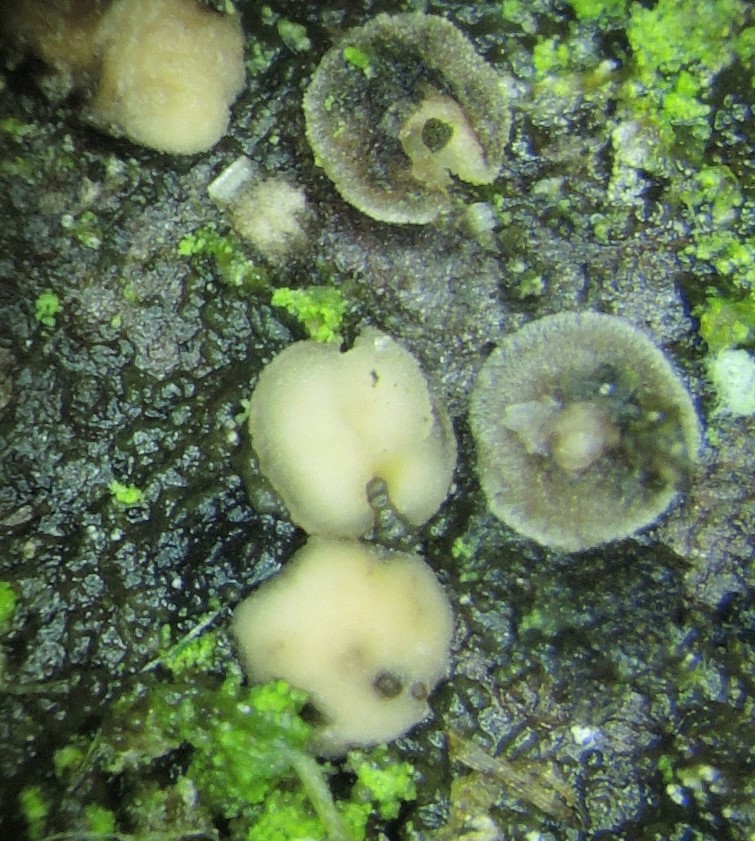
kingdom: Fungi
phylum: Ascomycota
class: Leotiomycetes
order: Helotiales
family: Mollisiaceae
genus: Mollisia
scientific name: Mollisia ramealis
